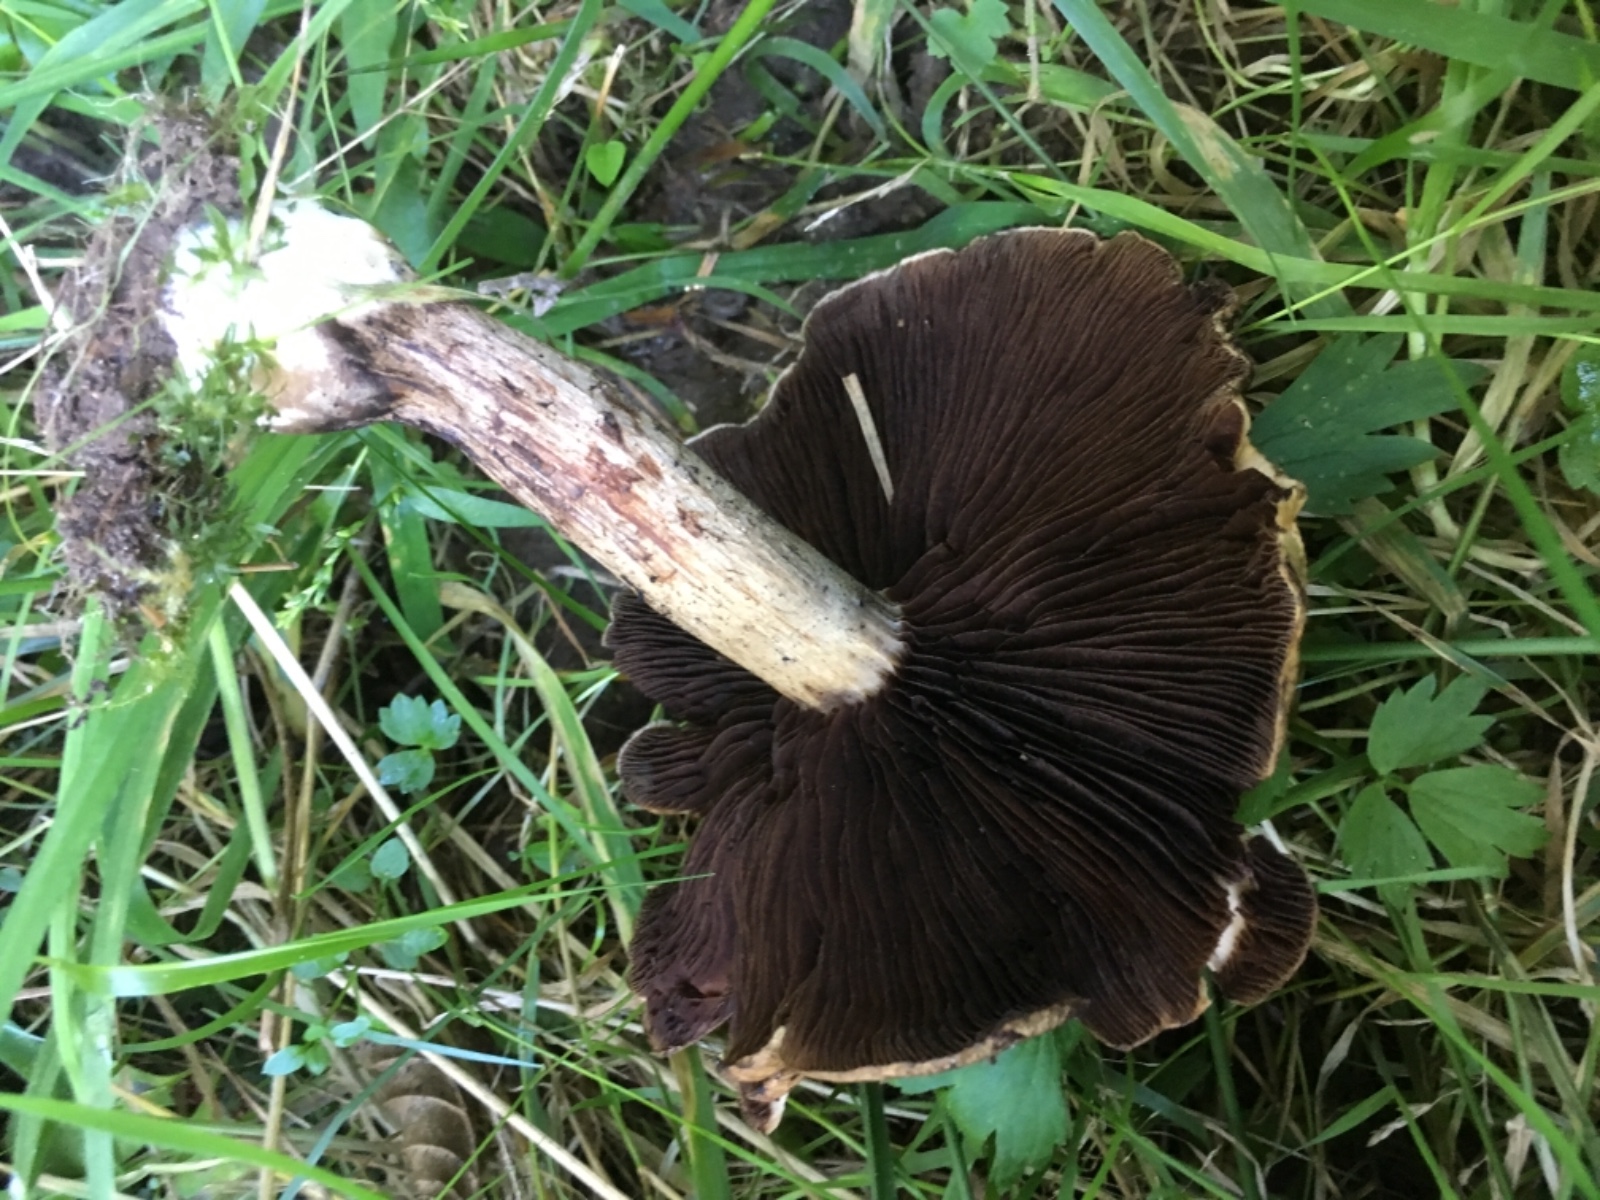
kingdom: Fungi
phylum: Basidiomycota
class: Agaricomycetes
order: Agaricales
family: Psathyrellaceae
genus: Lacrymaria
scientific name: Lacrymaria lacrymabunda
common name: grædende mørkhat
